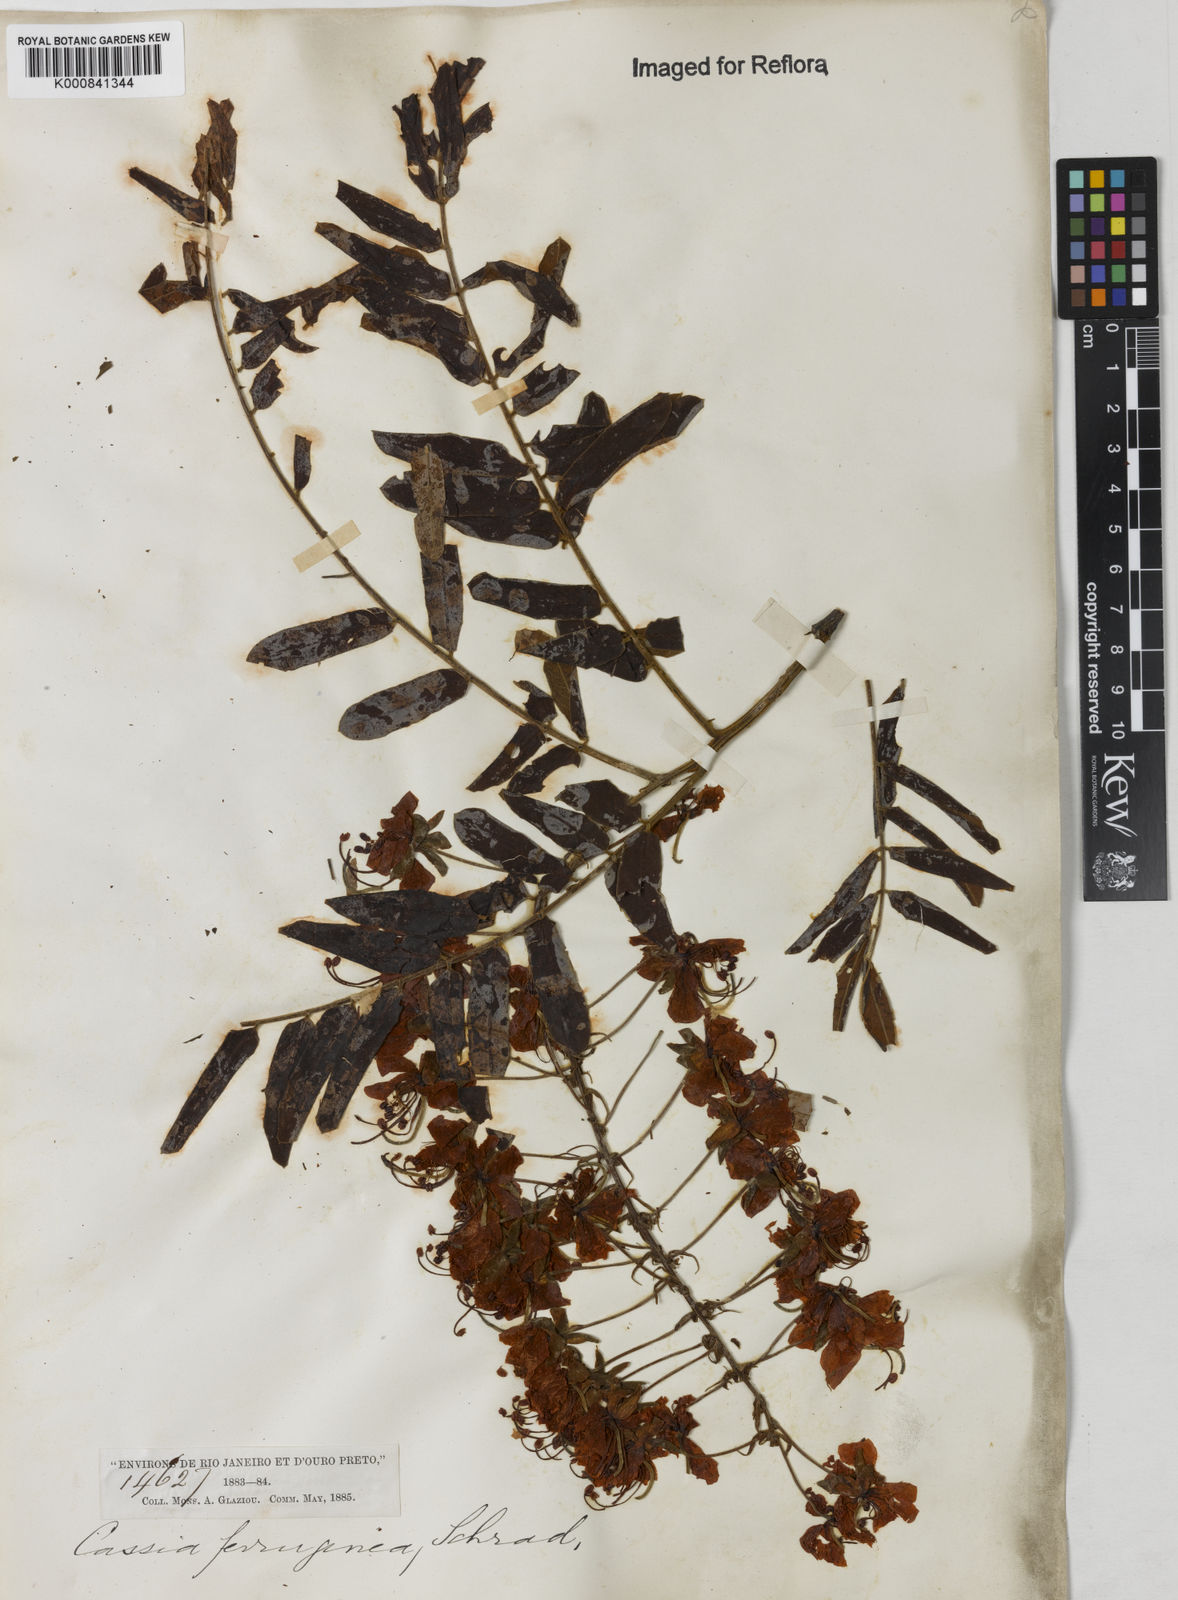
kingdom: Plantae
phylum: Tracheophyta
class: Magnoliopsida
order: Fabales
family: Fabaceae
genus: Cassia
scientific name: Cassia ferruginea
